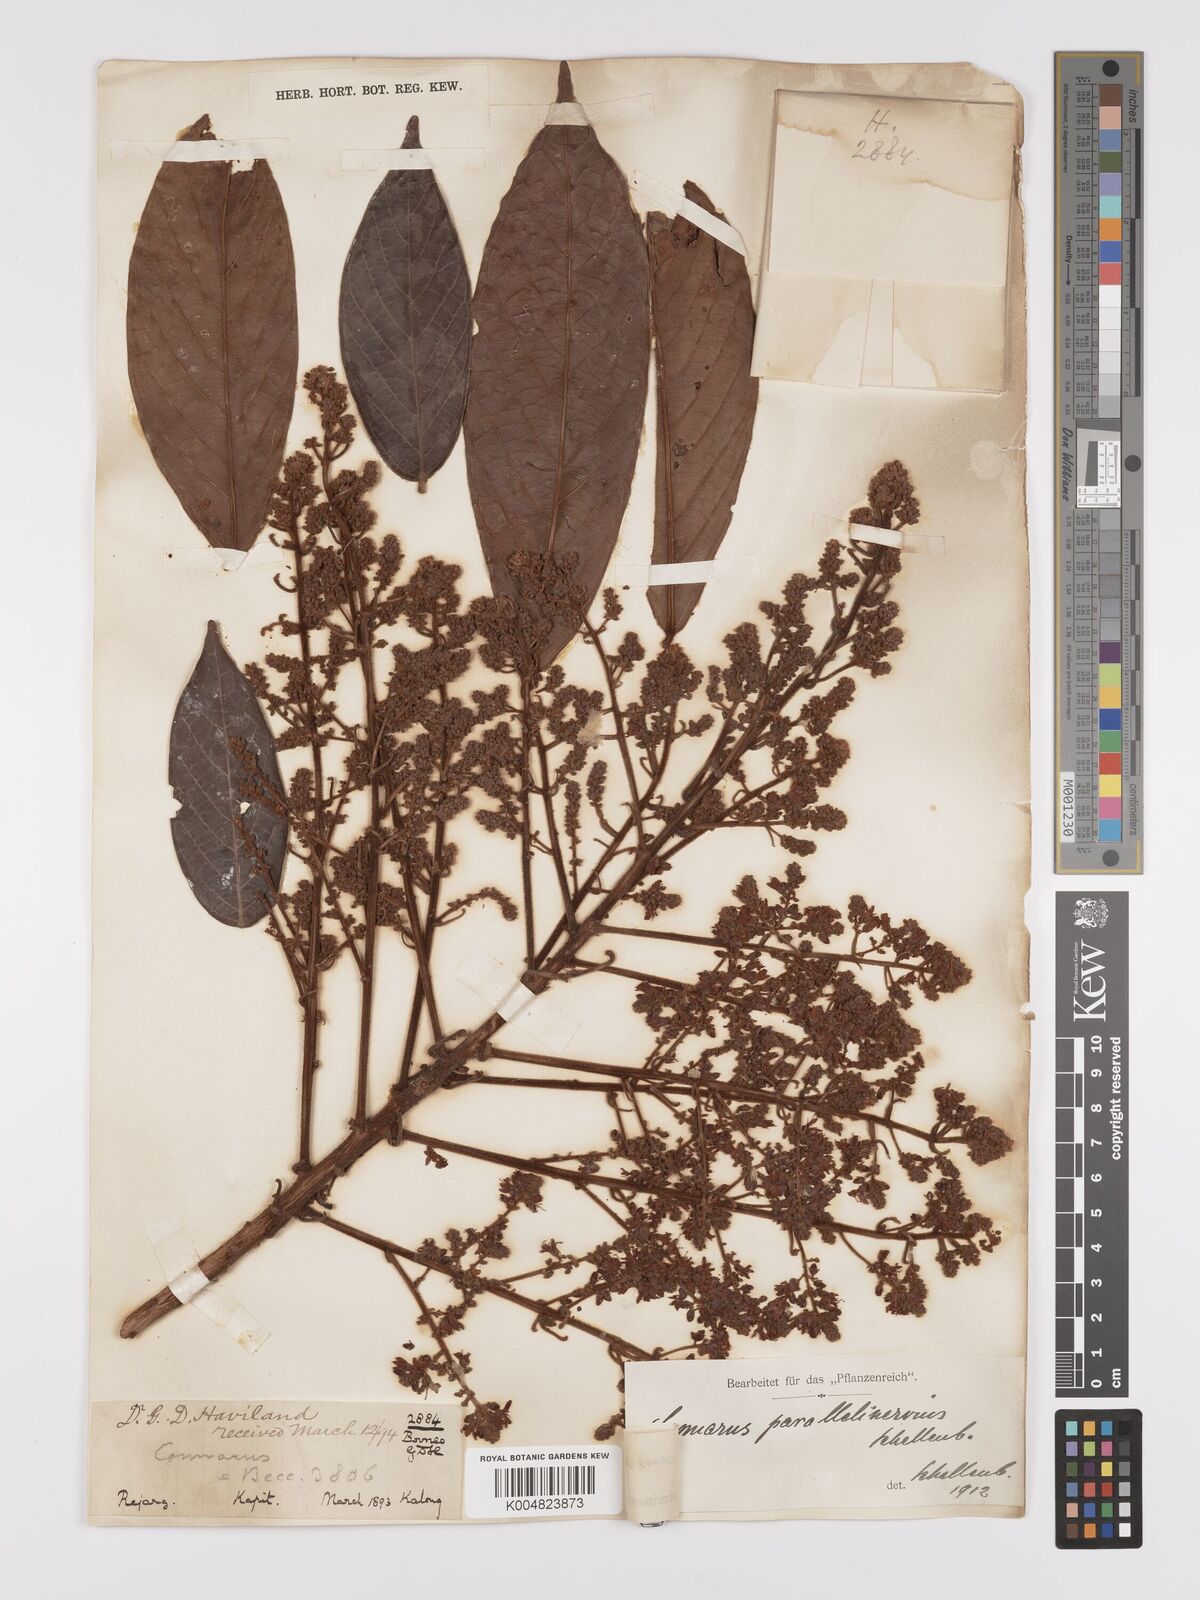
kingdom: Plantae
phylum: Tracheophyta
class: Magnoliopsida
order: Oxalidales
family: Connaraceae
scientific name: Connaraceae
